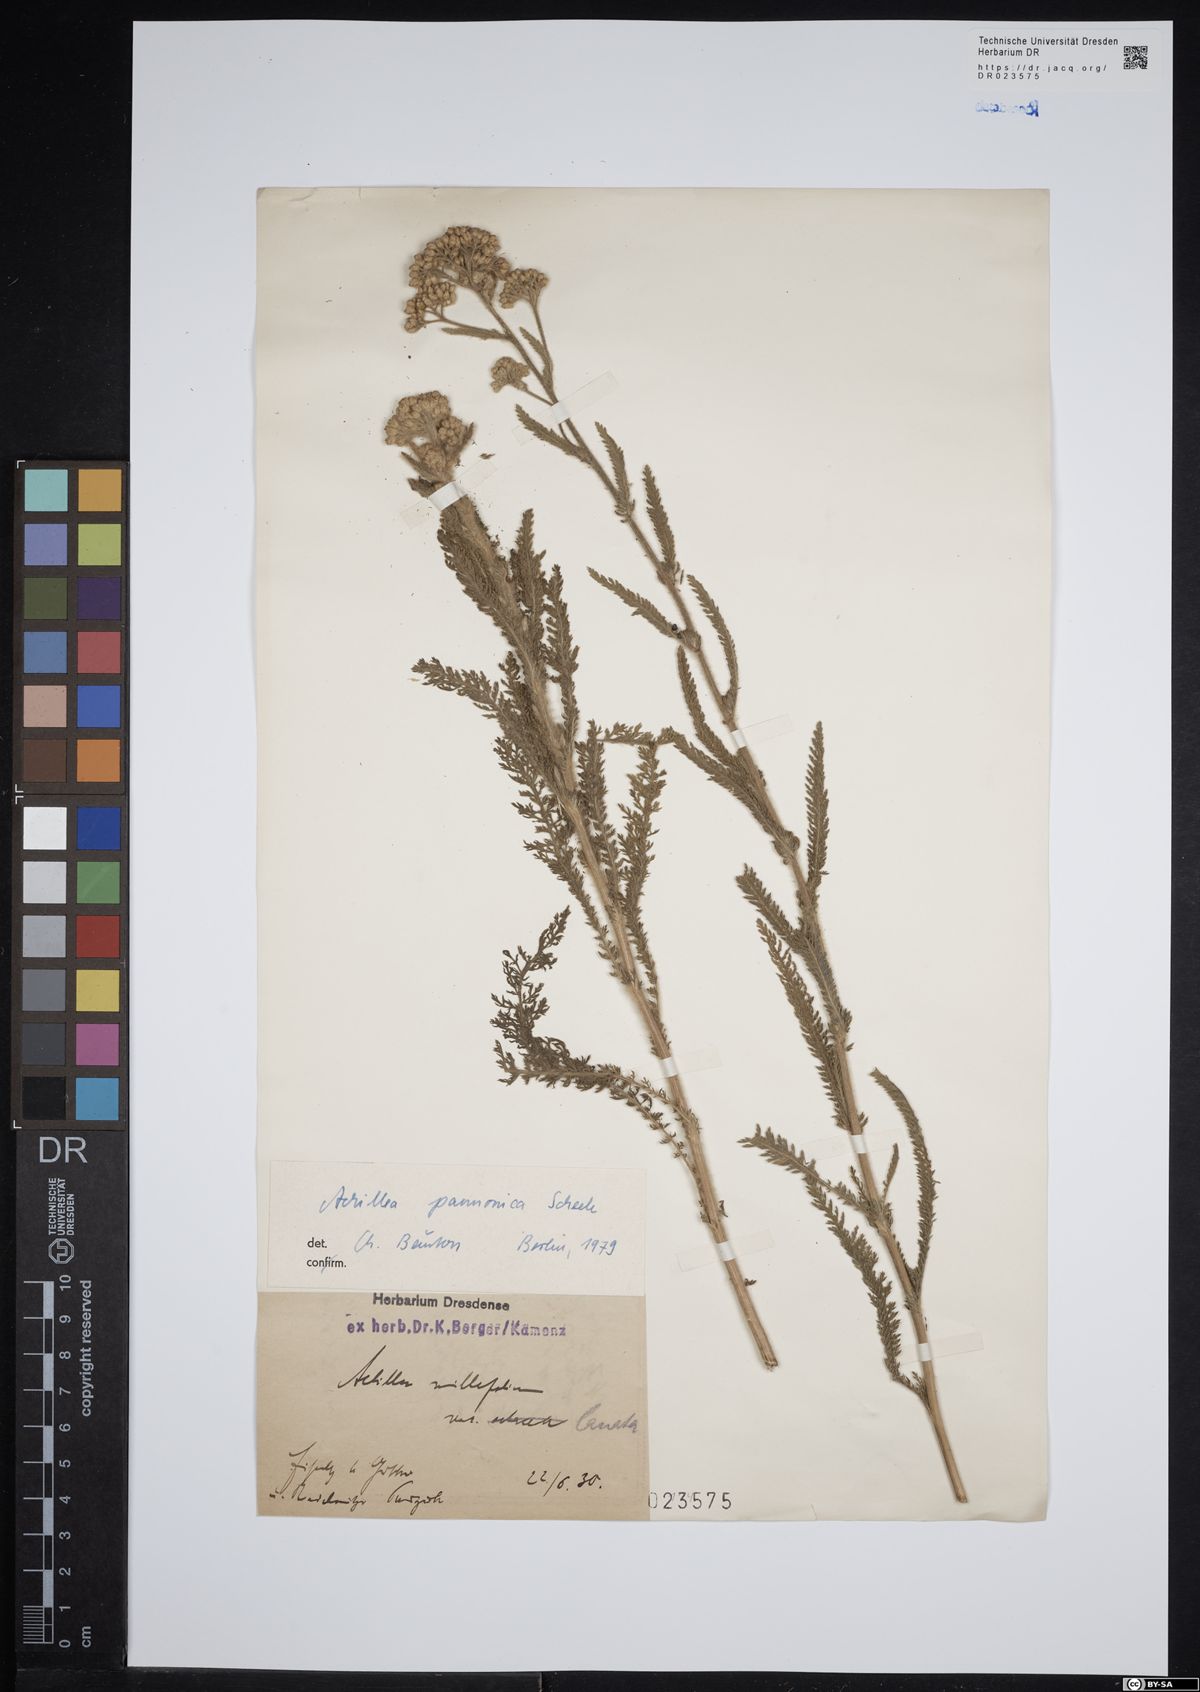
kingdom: Plantae
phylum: Tracheophyta
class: Magnoliopsida
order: Asterales
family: Asteraceae
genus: Achillea
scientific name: Achillea pannonica
